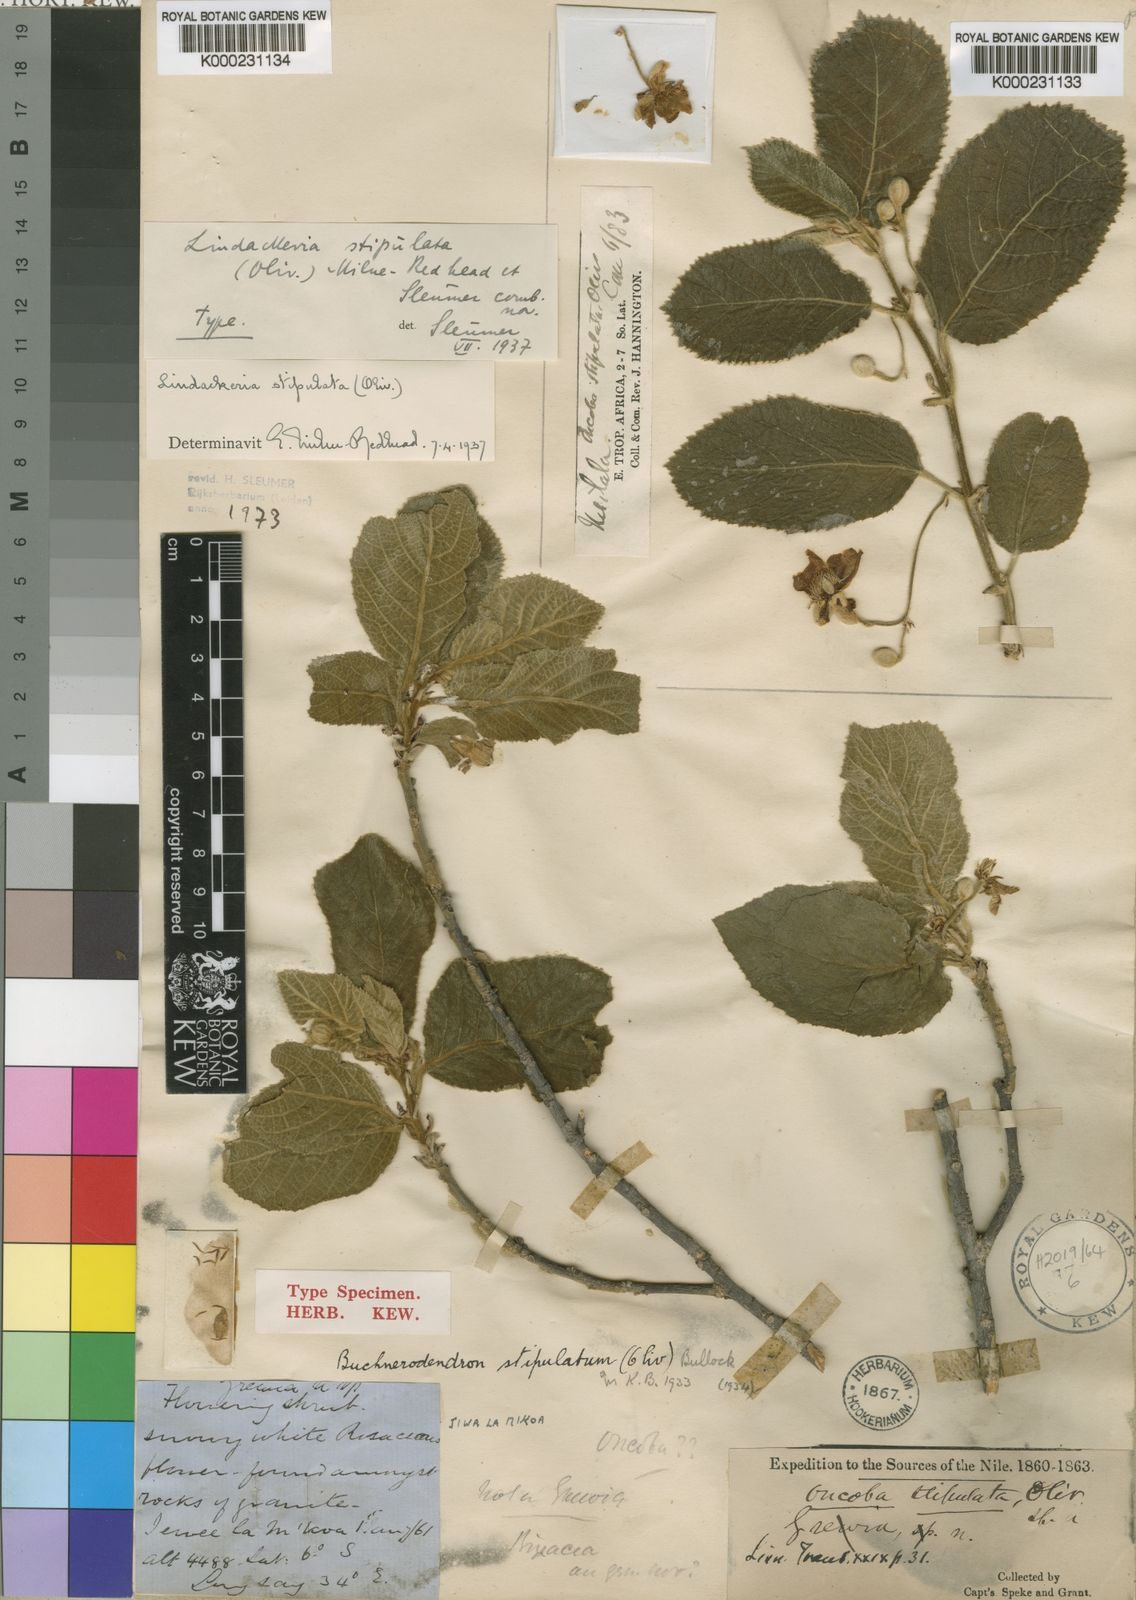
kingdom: Plantae
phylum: Tracheophyta
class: Magnoliopsida
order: Malpighiales
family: Achariaceae
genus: Lindackeria
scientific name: Lindackeria stipulata
